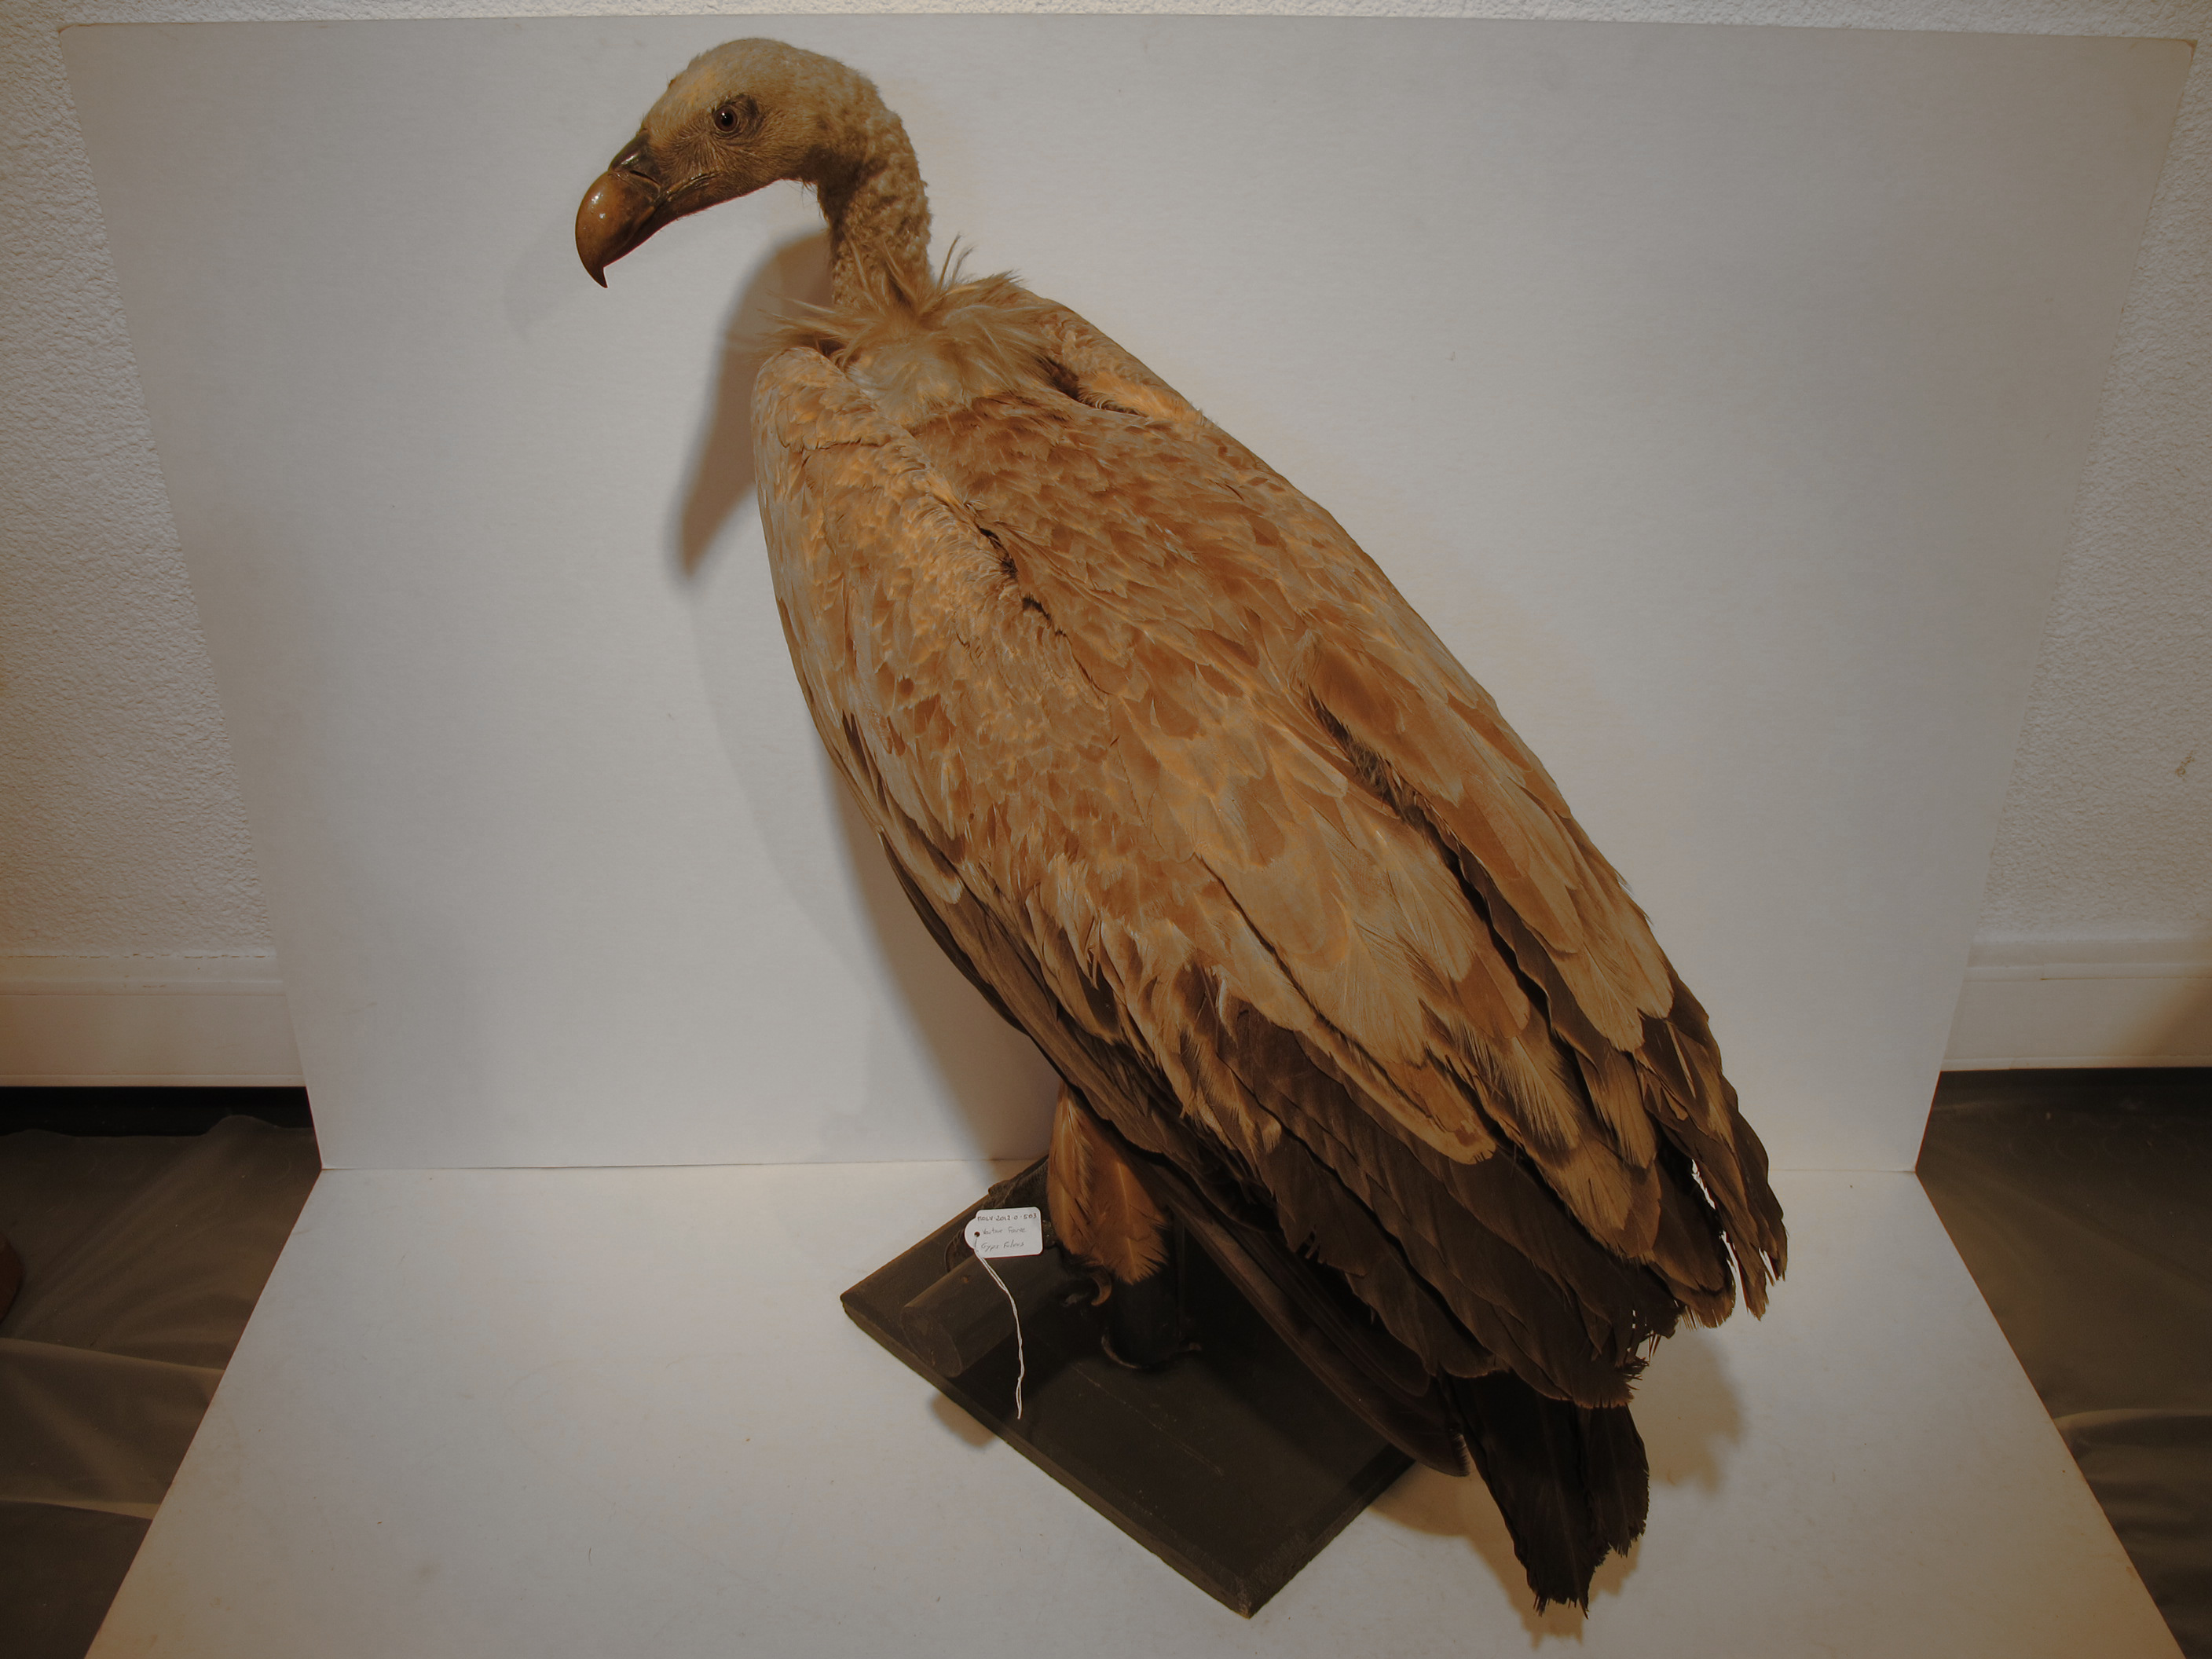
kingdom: Animalia
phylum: Chordata
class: Aves
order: Accipitriformes
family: Accipitridae
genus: Gyps
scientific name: Gyps fulvus
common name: Eurasian Griffon
